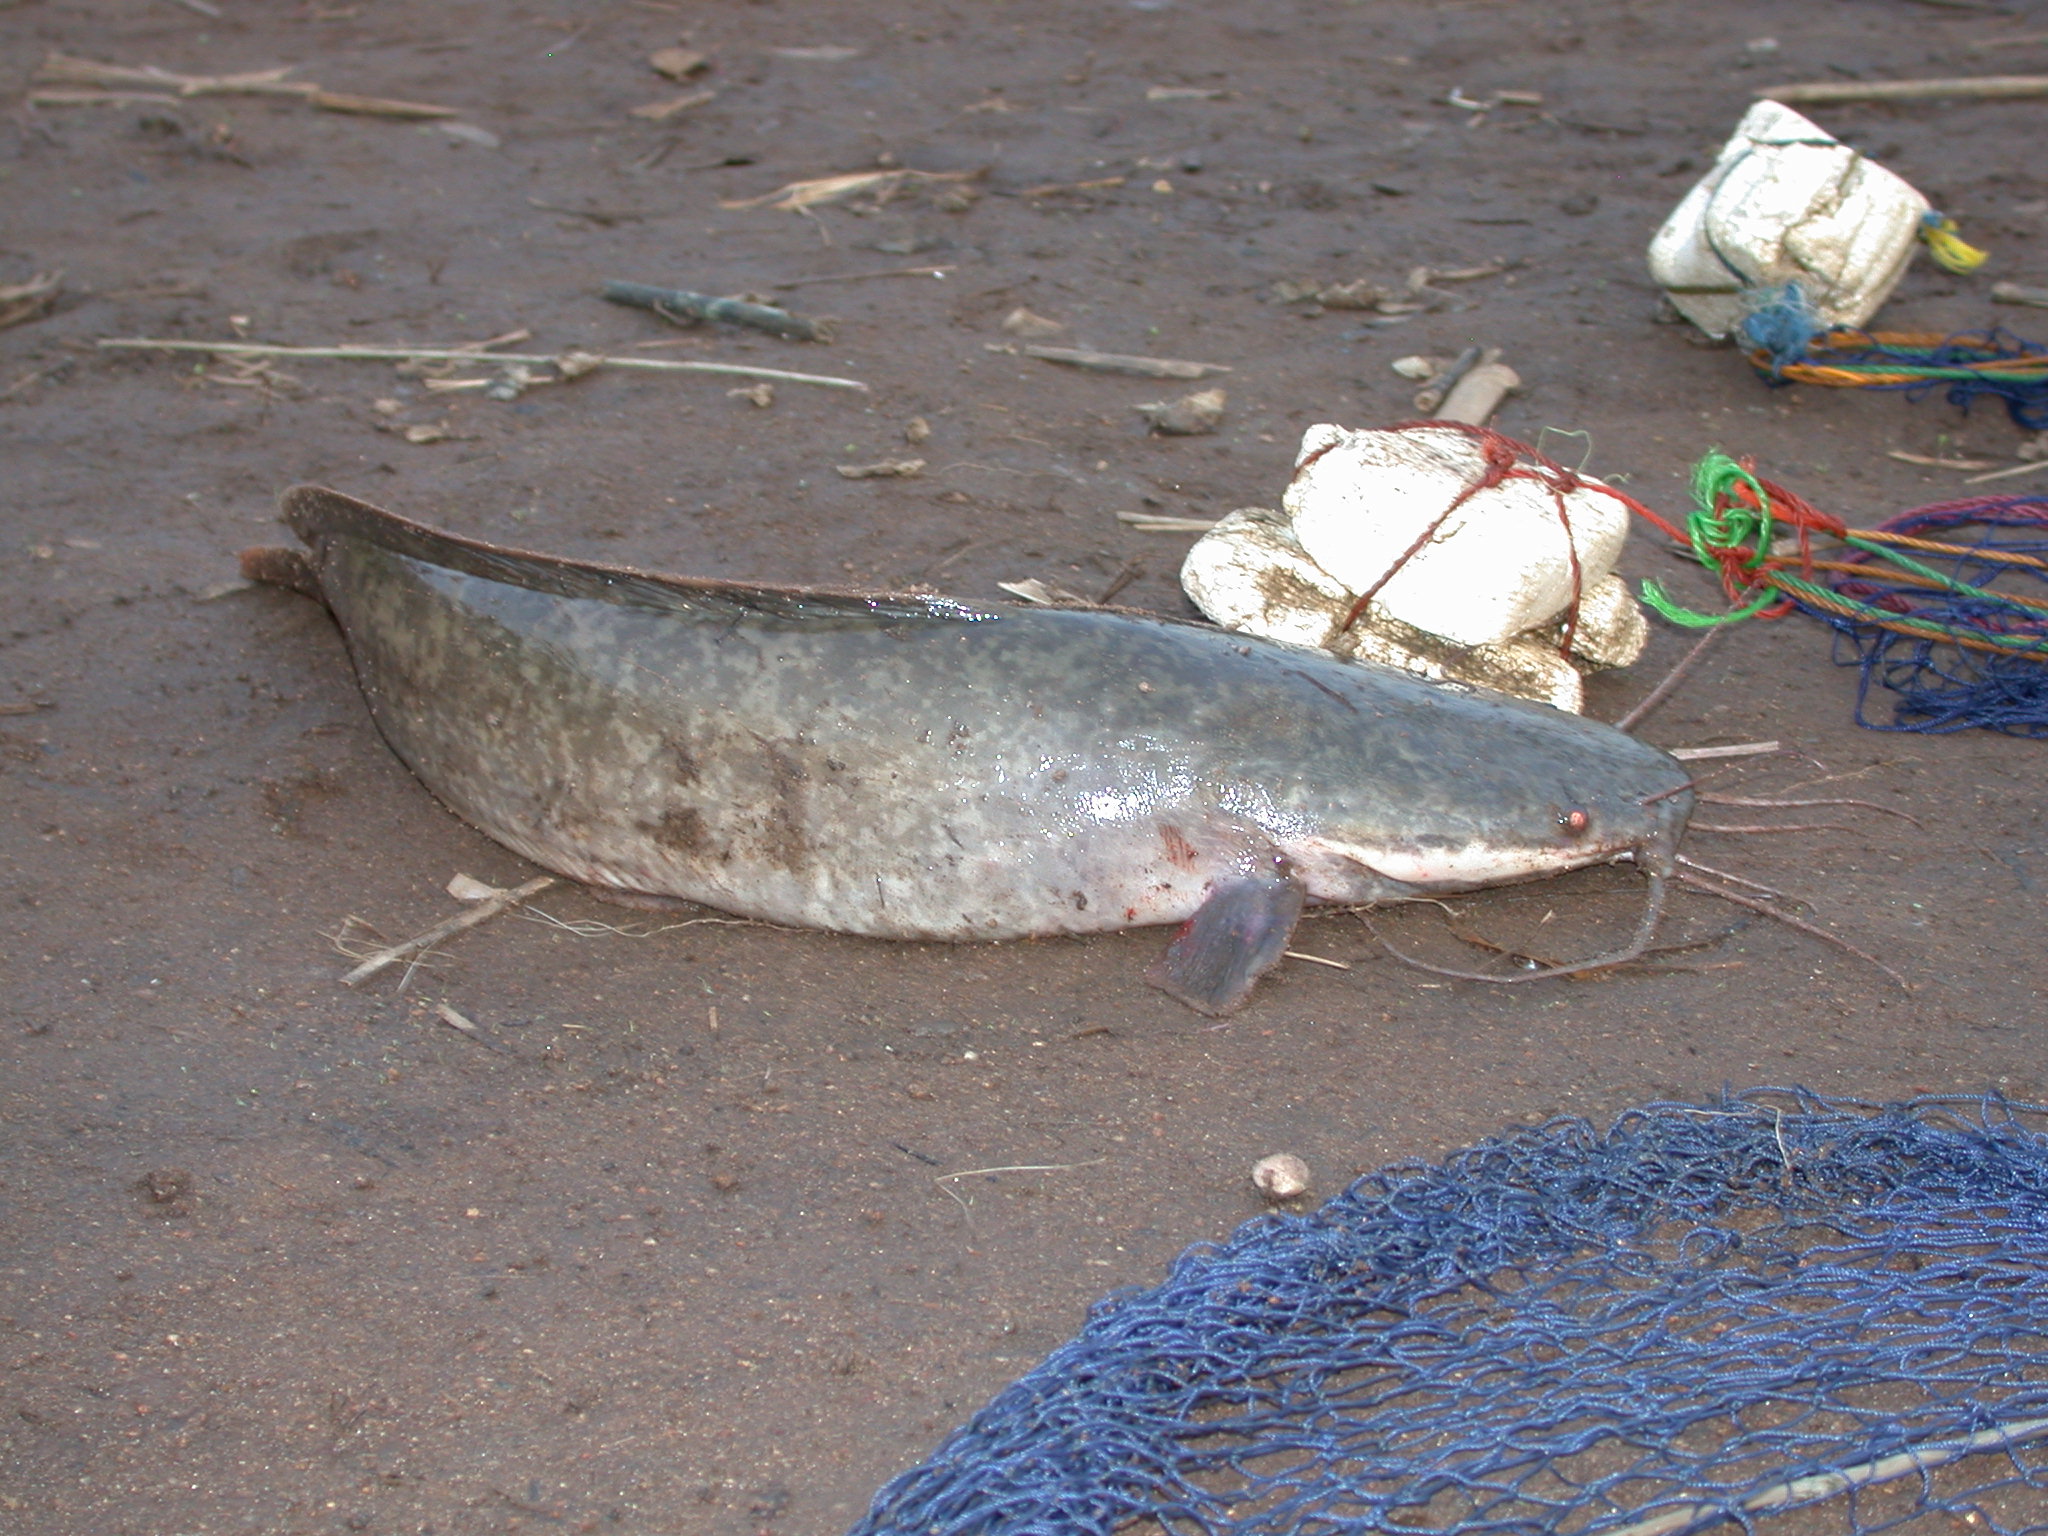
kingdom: Animalia
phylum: Chordata
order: Siluriformes
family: Clariidae
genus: Clarias
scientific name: Clarias gariepinus
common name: African catfish
